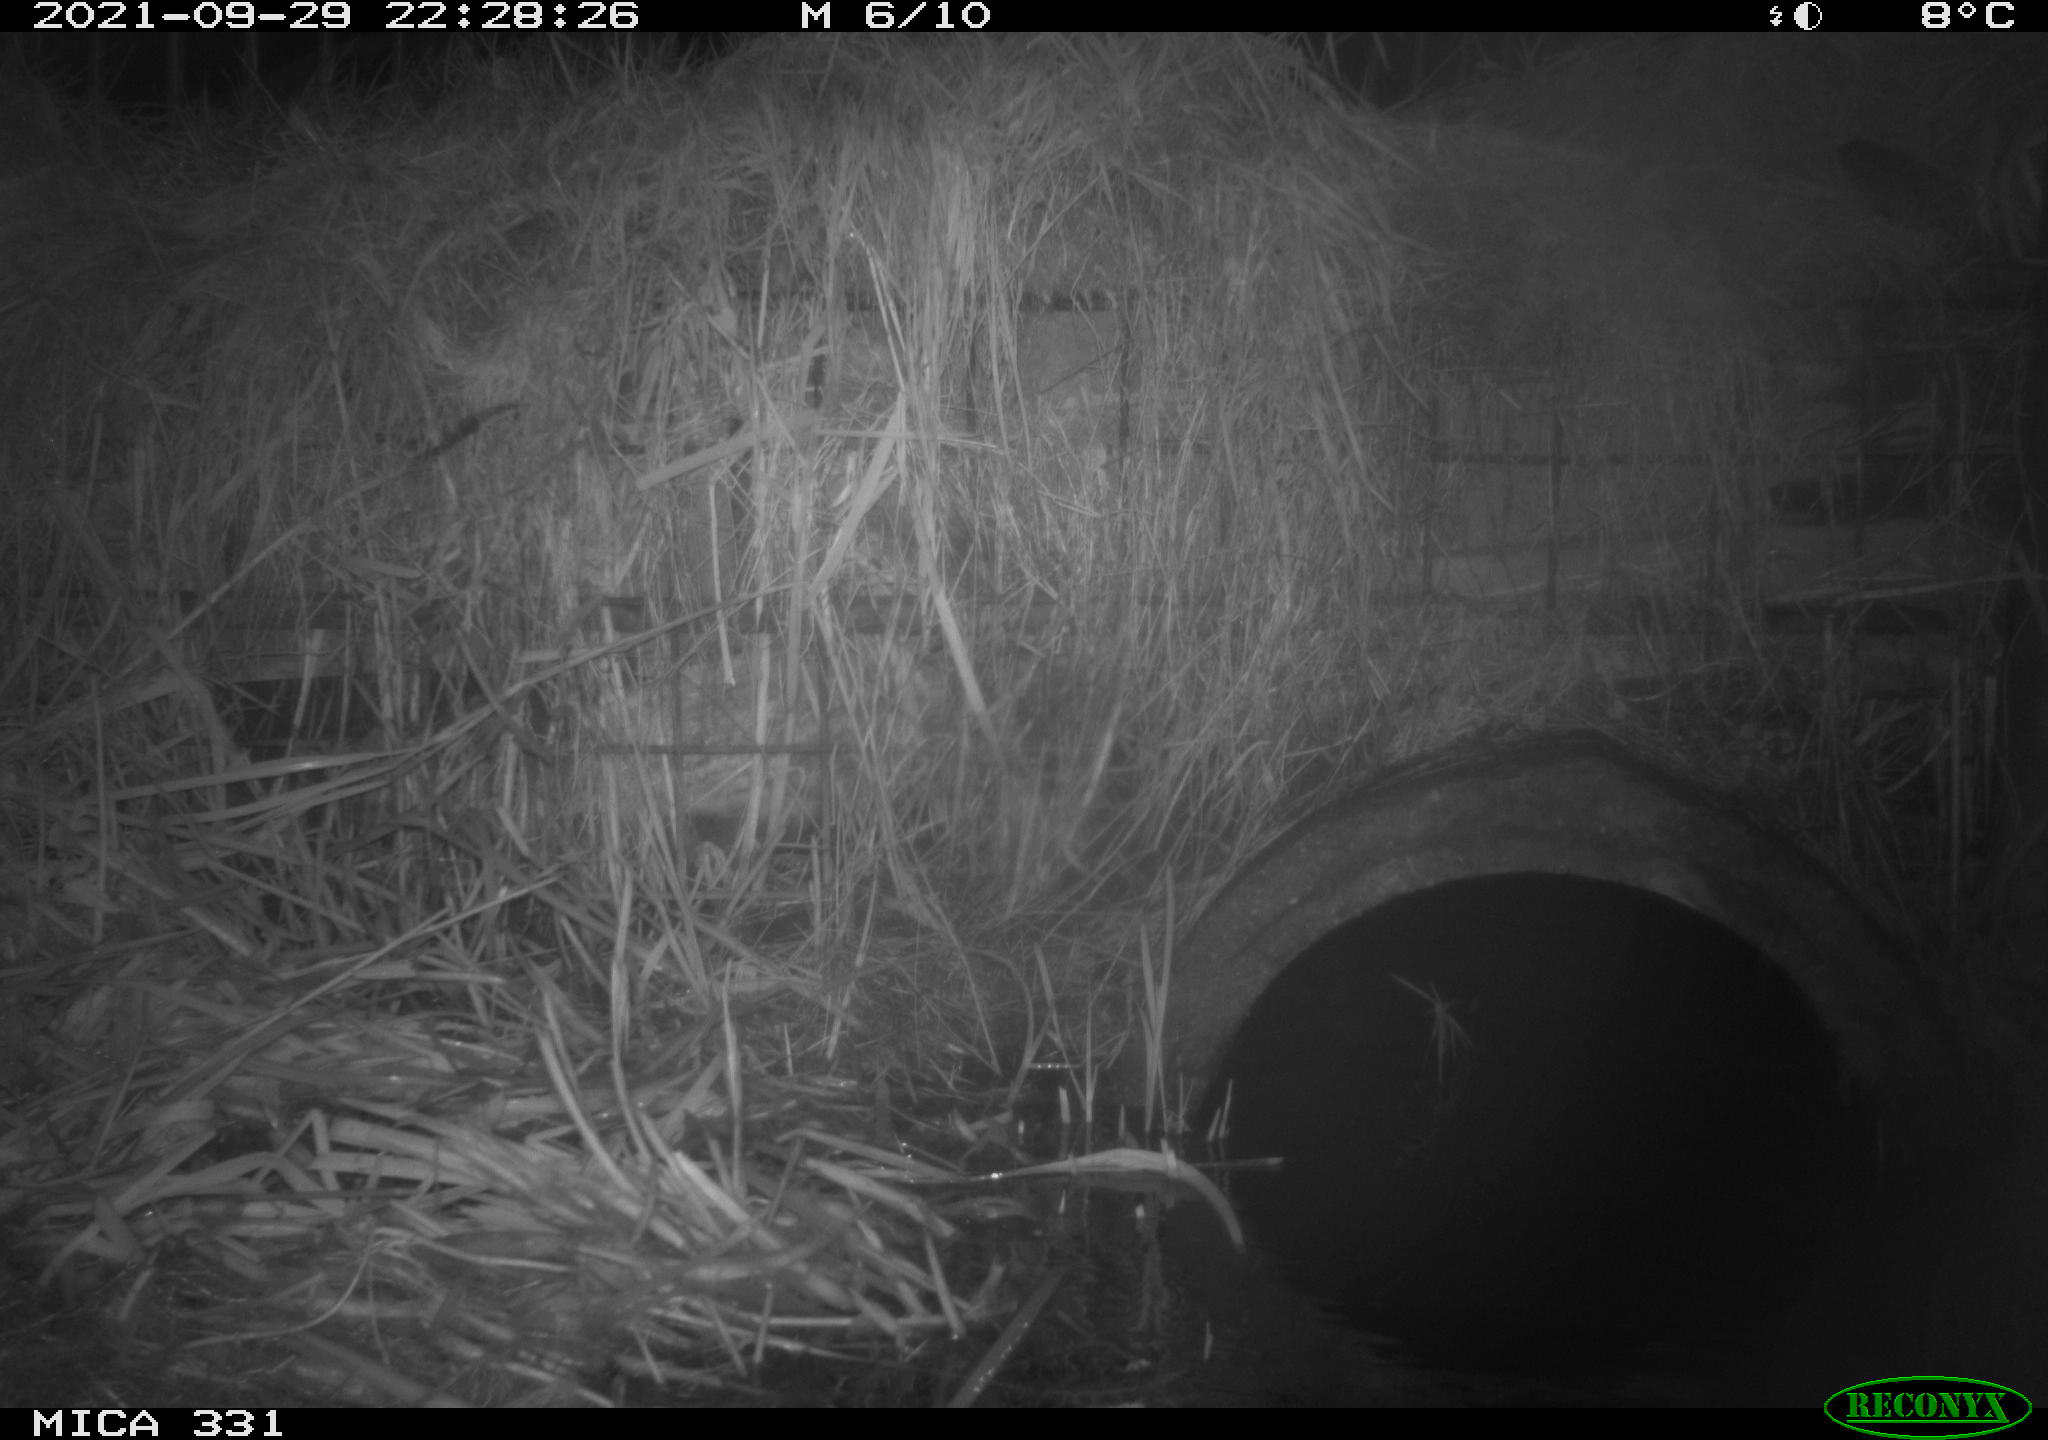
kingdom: Animalia
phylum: Chordata
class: Mammalia
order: Rodentia
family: Muridae
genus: Rattus
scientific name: Rattus norvegicus
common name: Brown rat
